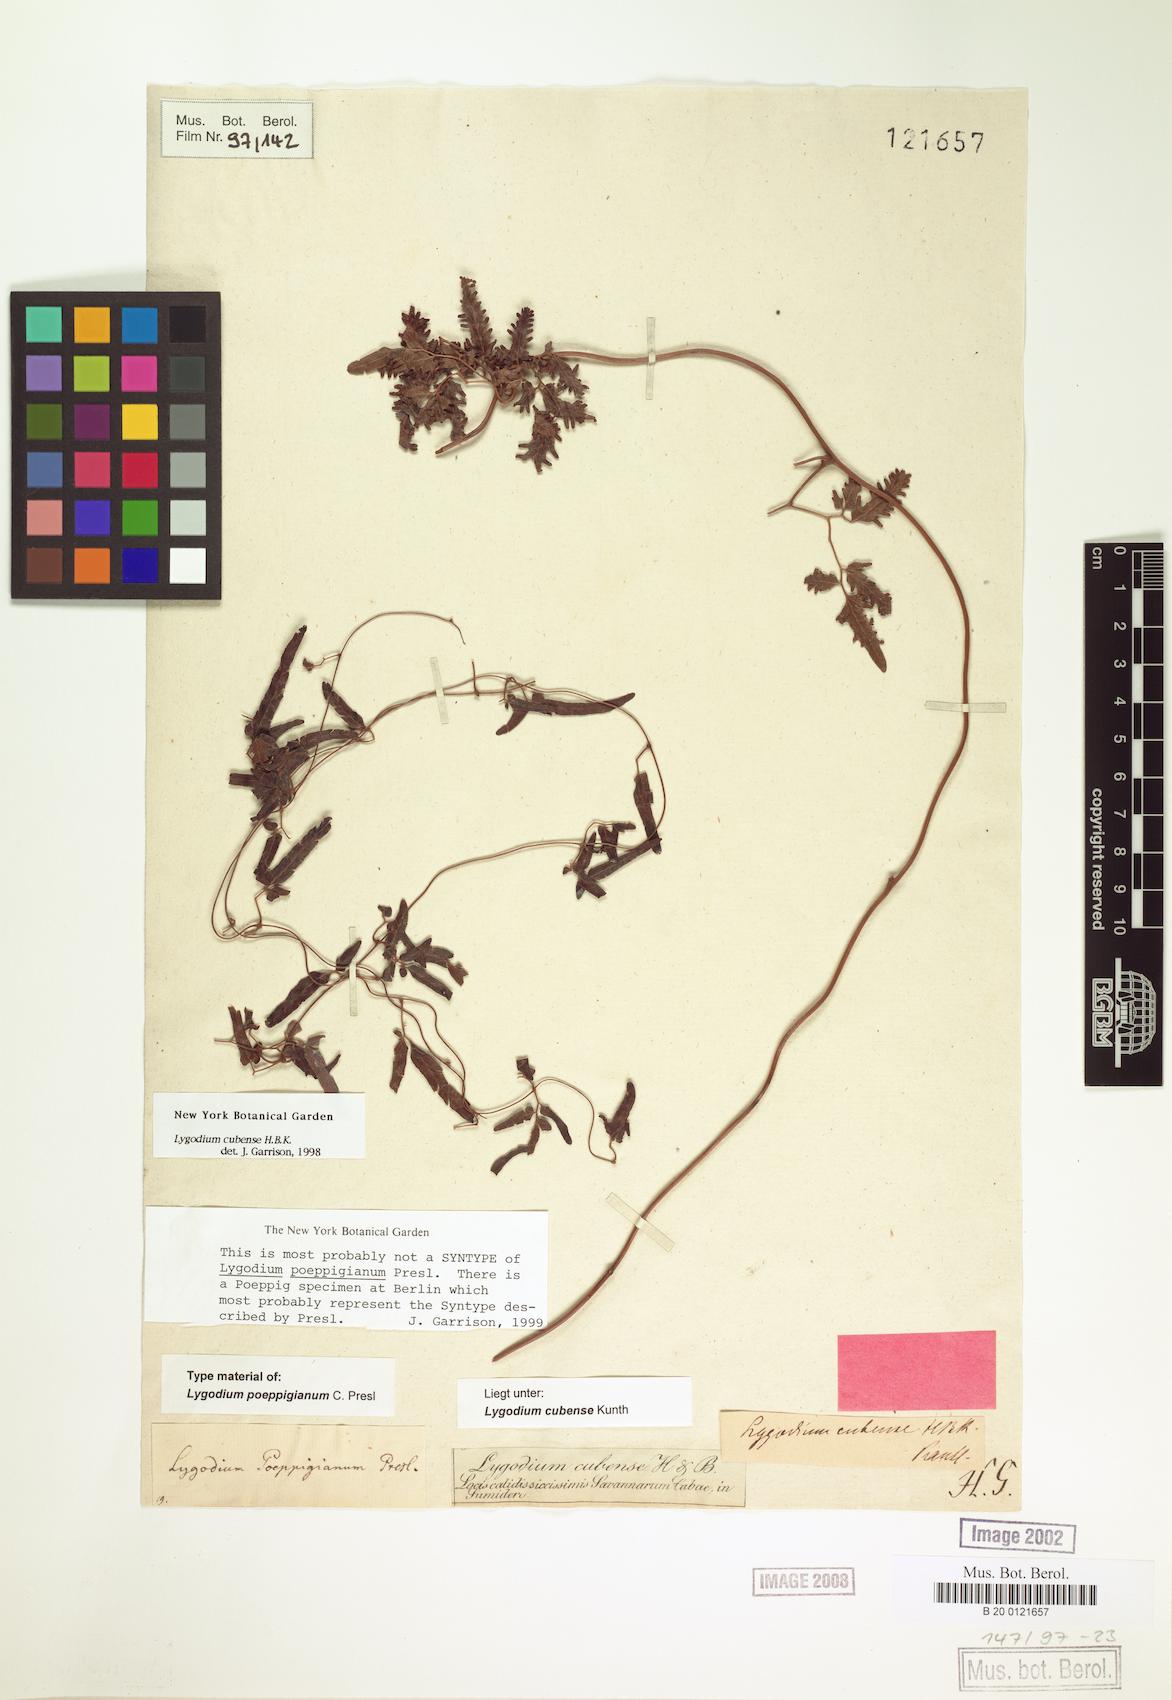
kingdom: Plantae
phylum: Tracheophyta
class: Polypodiopsida
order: Schizaeales
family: Lygodiaceae
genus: Lygodium
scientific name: Lygodium cubense
